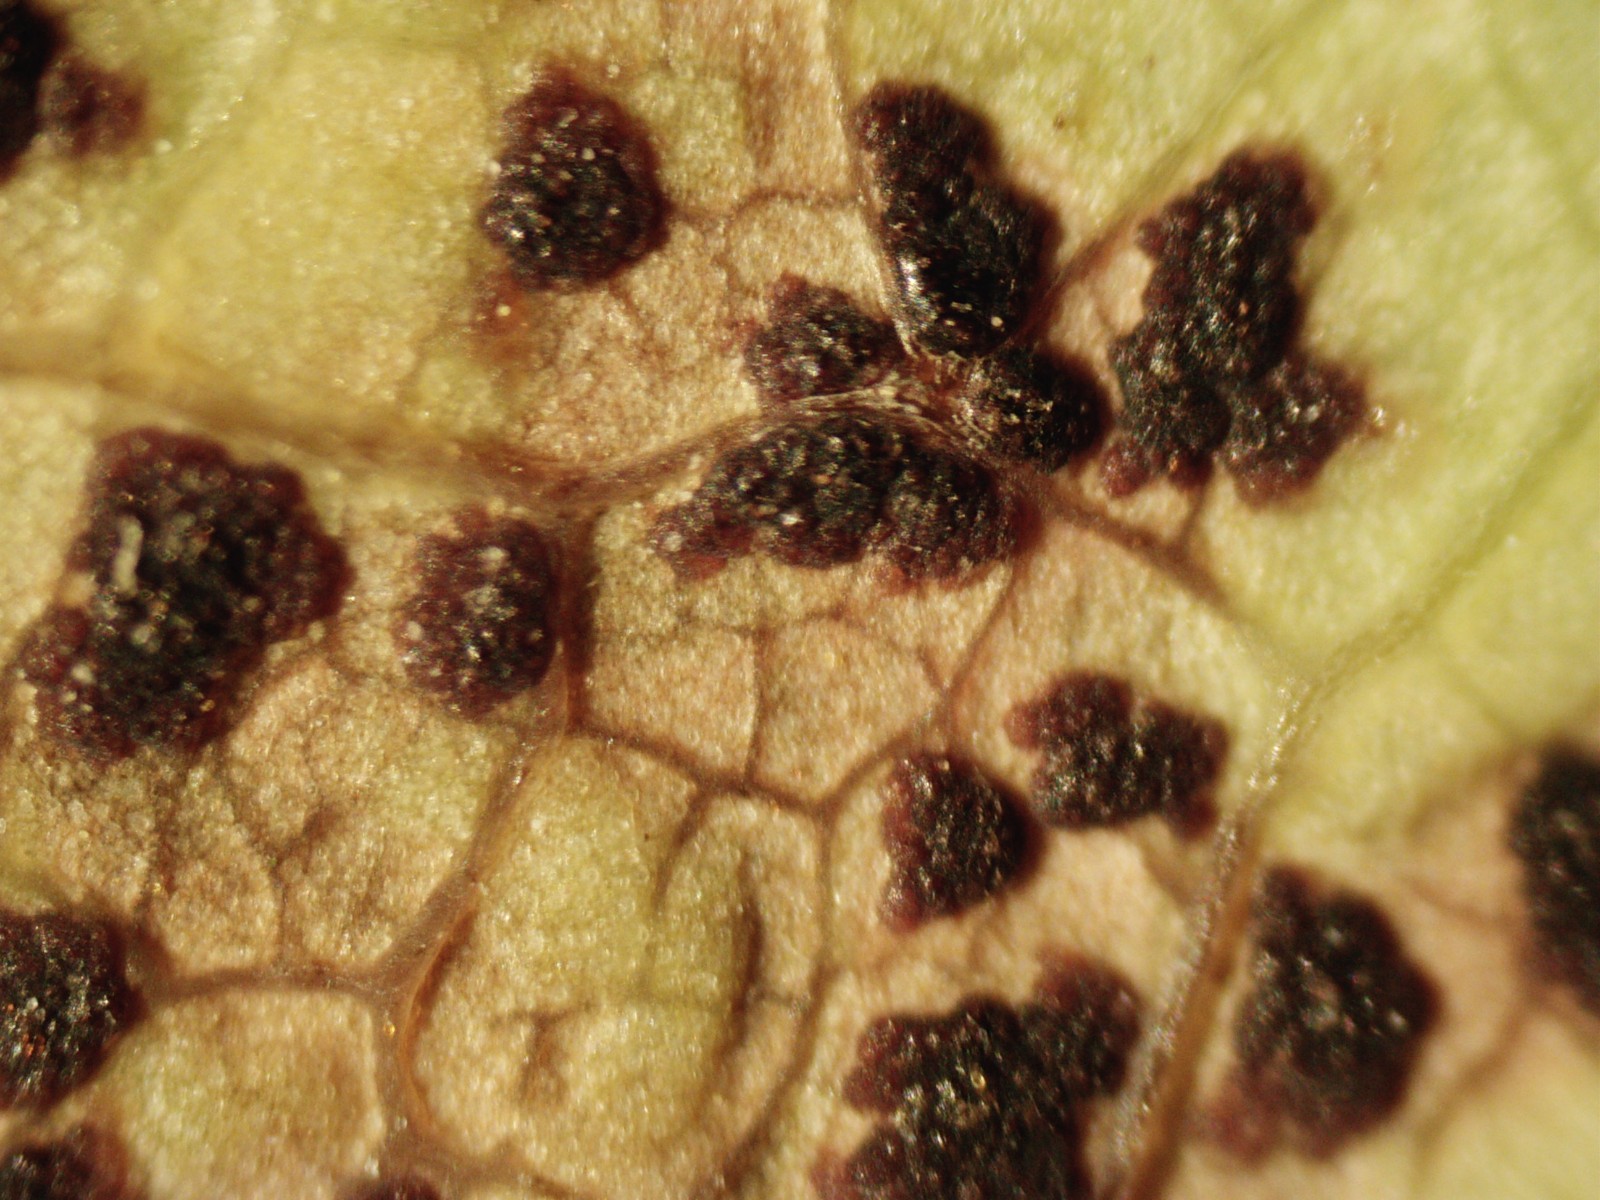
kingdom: Fungi
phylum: Basidiomycota
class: Pucciniomycetes
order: Pucciniales
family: Pucciniaceae
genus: Peristemma
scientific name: Peristemma pseudosphaeria
